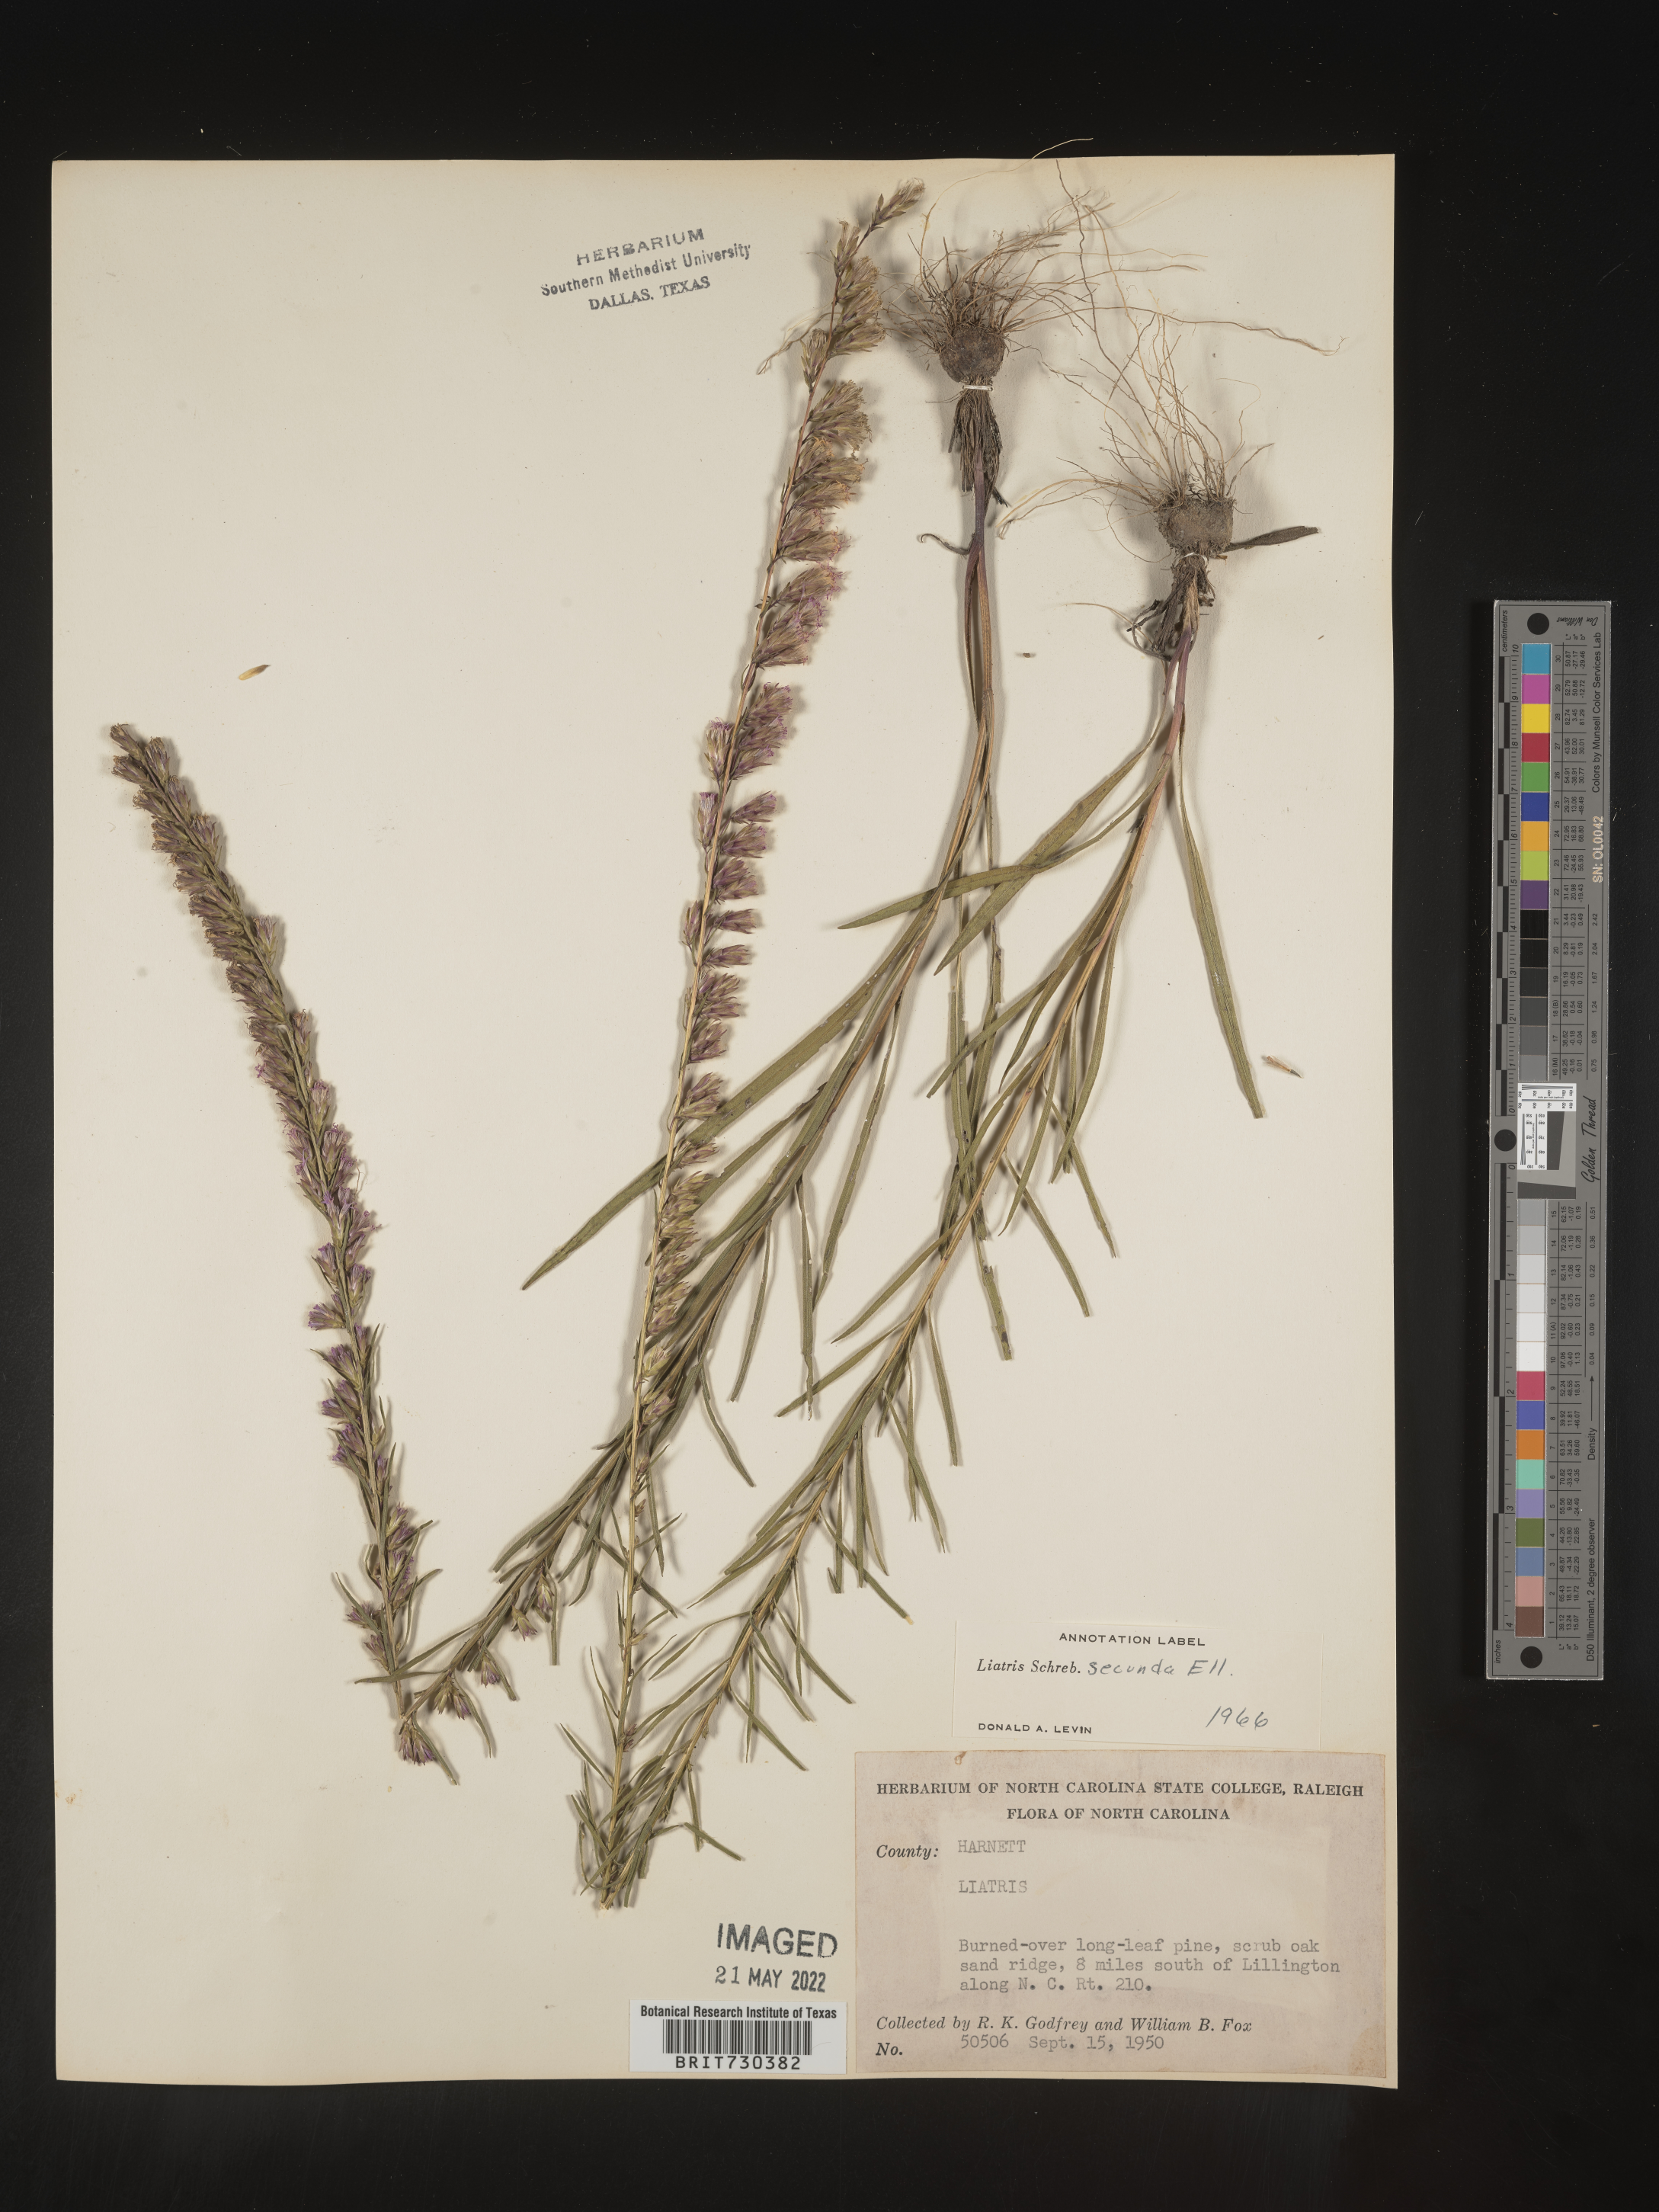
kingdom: Plantae
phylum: Tracheophyta
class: Magnoliopsida
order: Asterales
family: Asteraceae
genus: Liatris
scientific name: Liatris cokeri
